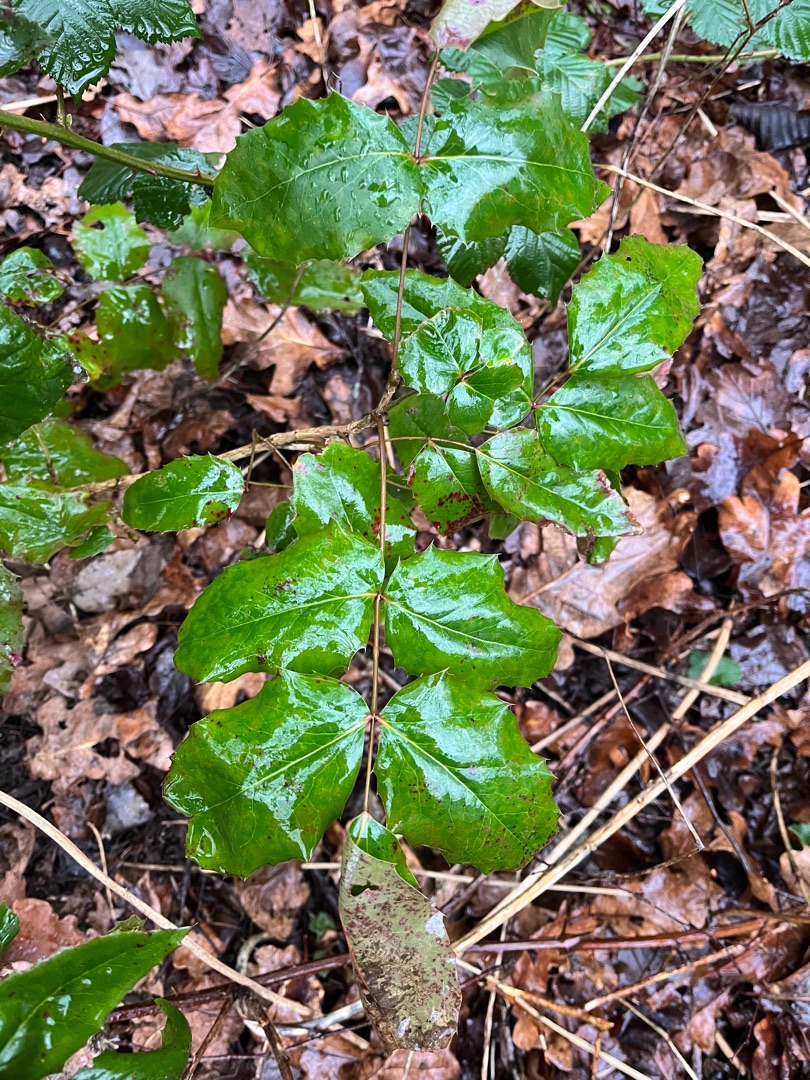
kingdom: Plantae
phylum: Tracheophyta
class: Magnoliopsida
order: Ranunculales
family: Berberidaceae
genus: Mahonia
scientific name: Mahonia aquifolium
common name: Almindelig mahonie
